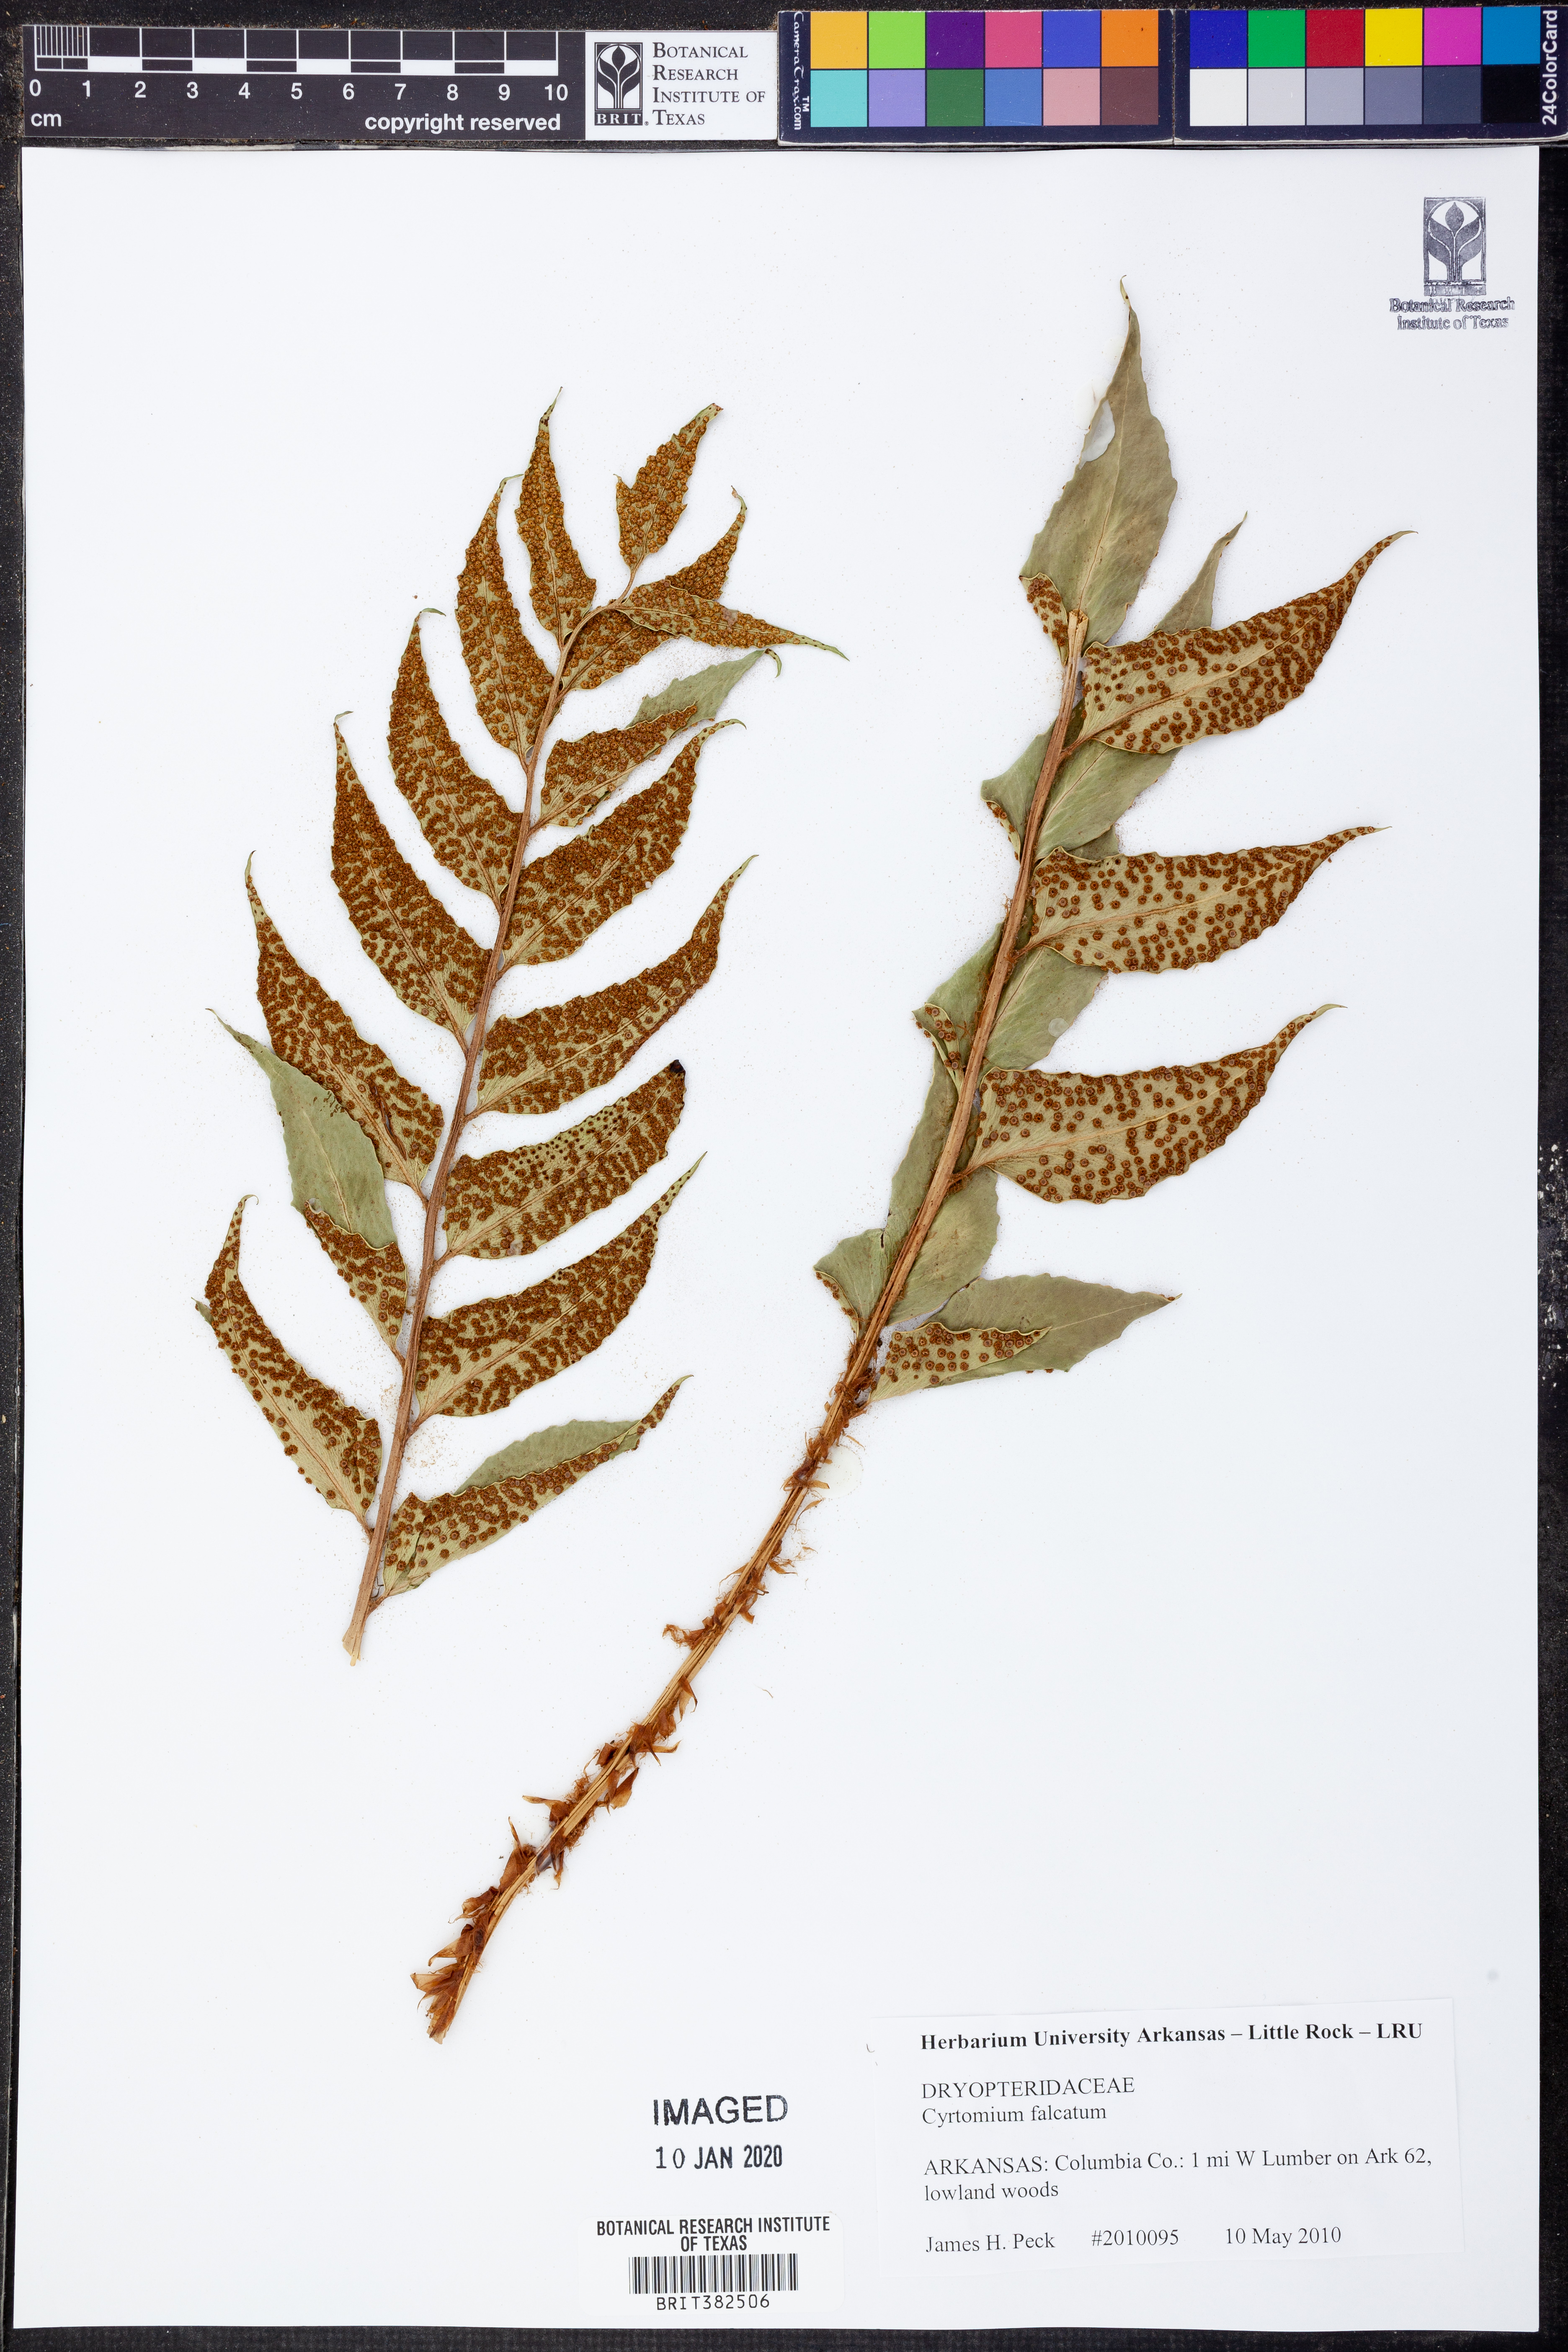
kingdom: Plantae
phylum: Tracheophyta
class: Polypodiopsida
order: Polypodiales
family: Dryopteridaceae
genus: Cyrtomium
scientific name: Cyrtomium falcatum
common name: House holly-fern
